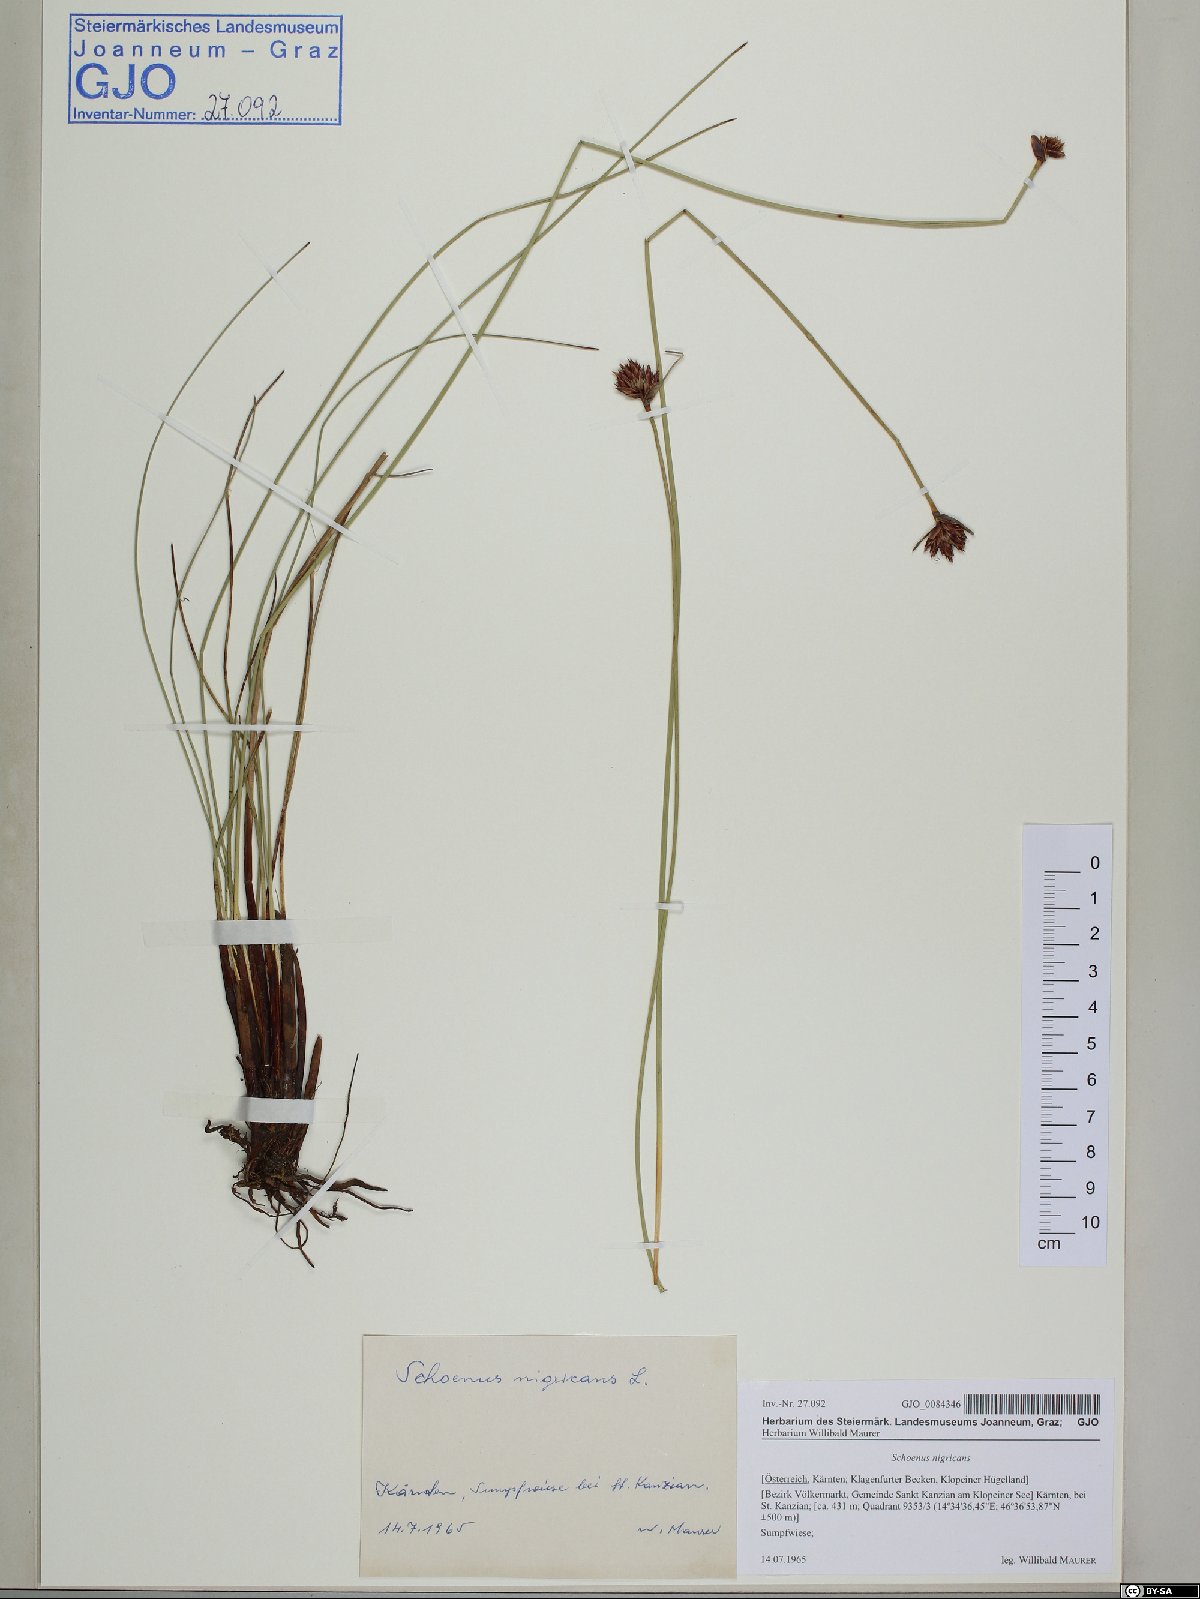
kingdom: Plantae
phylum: Tracheophyta
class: Liliopsida
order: Poales
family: Cyperaceae
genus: Schoenus
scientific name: Schoenus nigricans
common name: Black bog-rush
